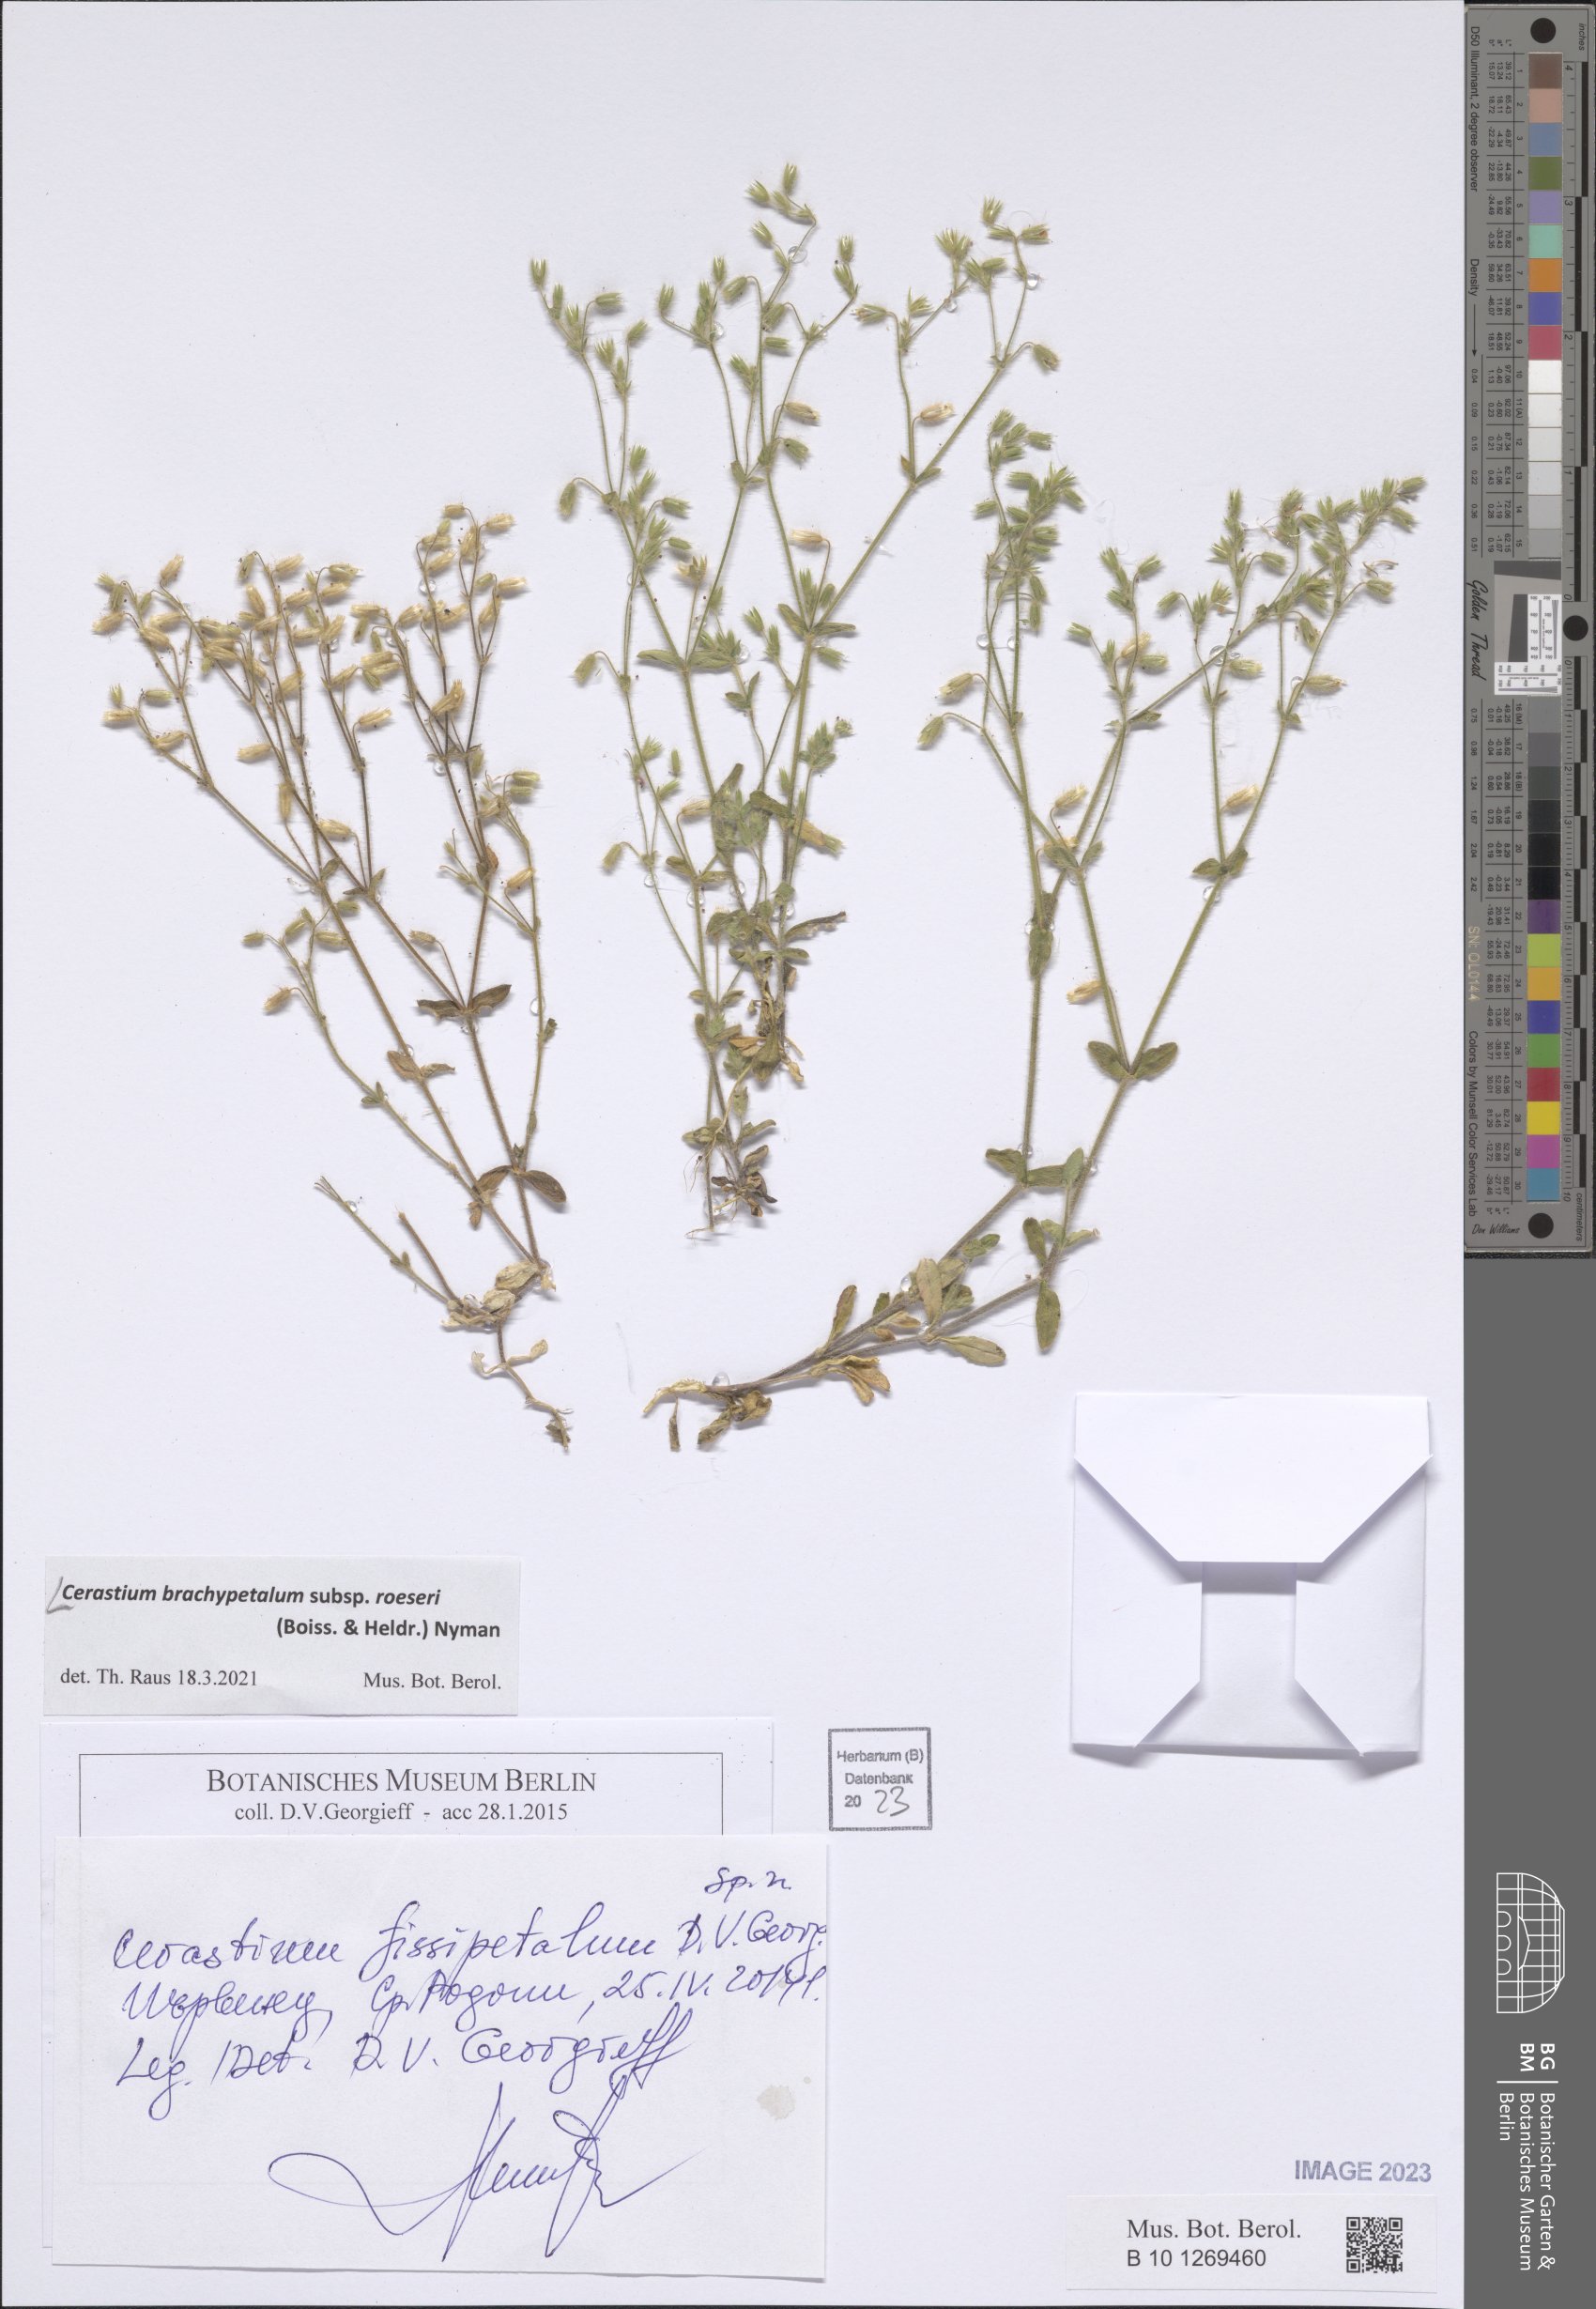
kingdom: Plantae
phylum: Tracheophyta
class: Magnoliopsida
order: Caryophyllales
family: Caryophyllaceae
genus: Cerastium
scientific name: Cerastium brachypetalum
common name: Grey mouse-ear
